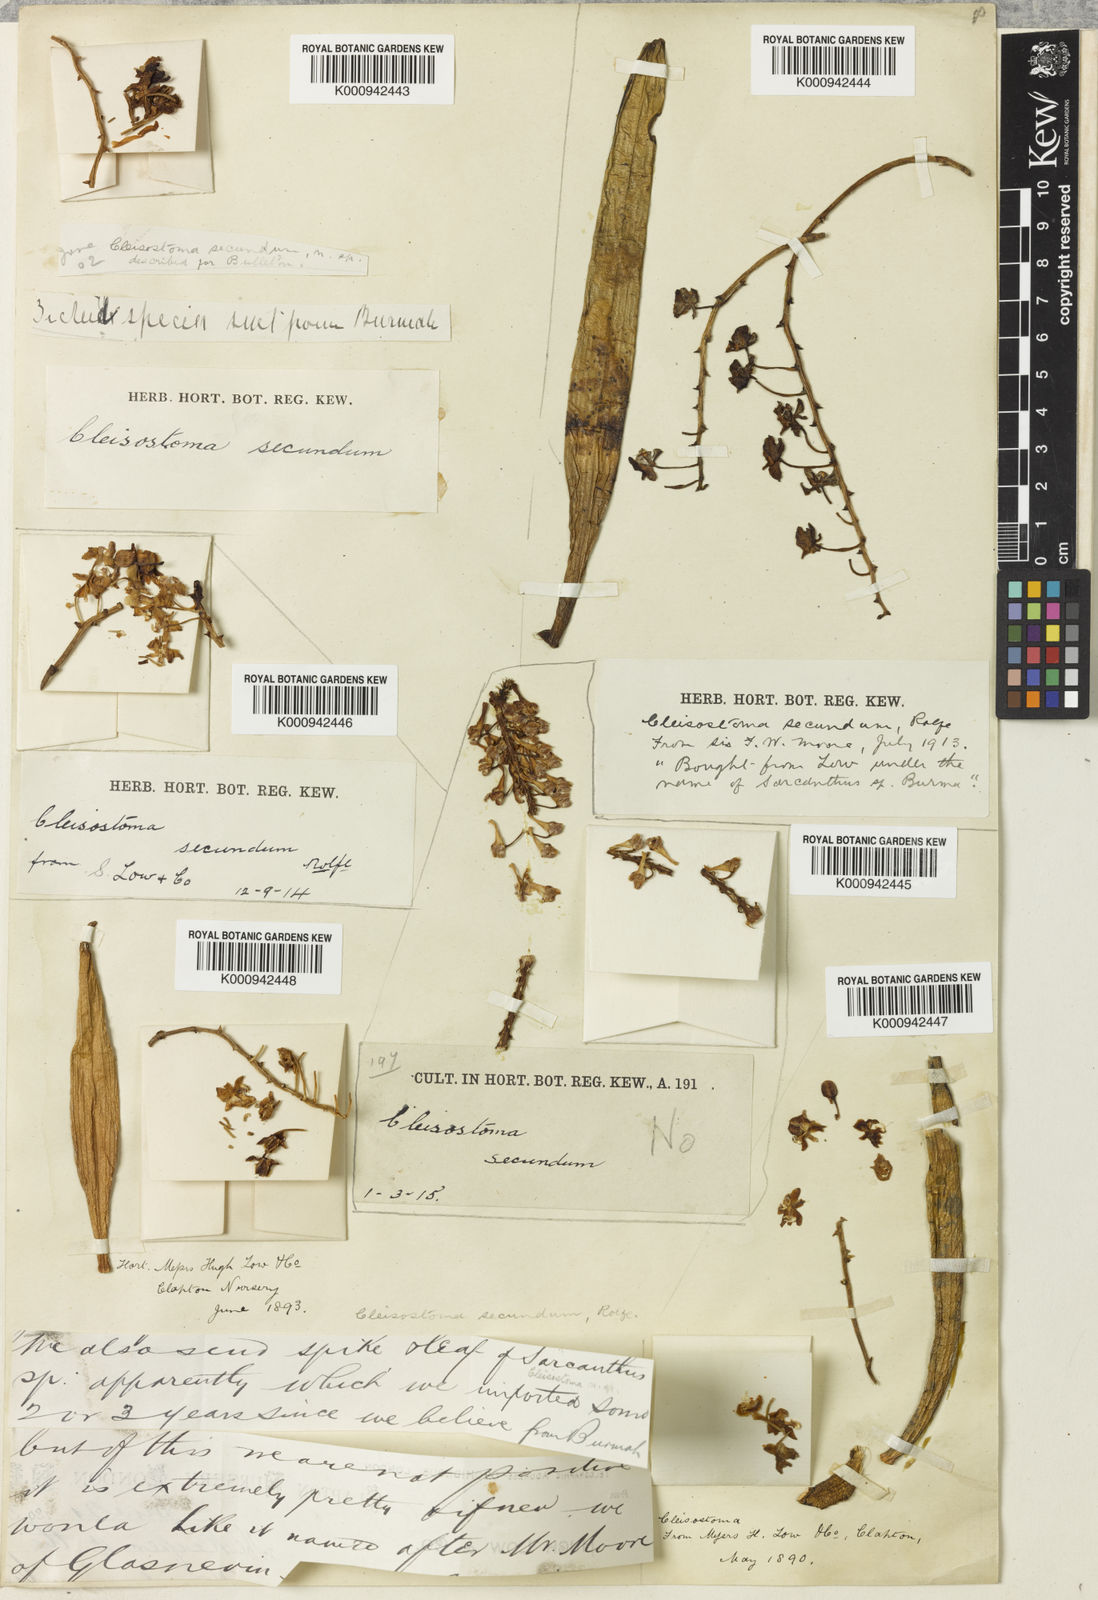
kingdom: Plantae
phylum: Tracheophyta
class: Liliopsida
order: Asparagales
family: Orchidaceae
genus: Micropera
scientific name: Micropera secunda
